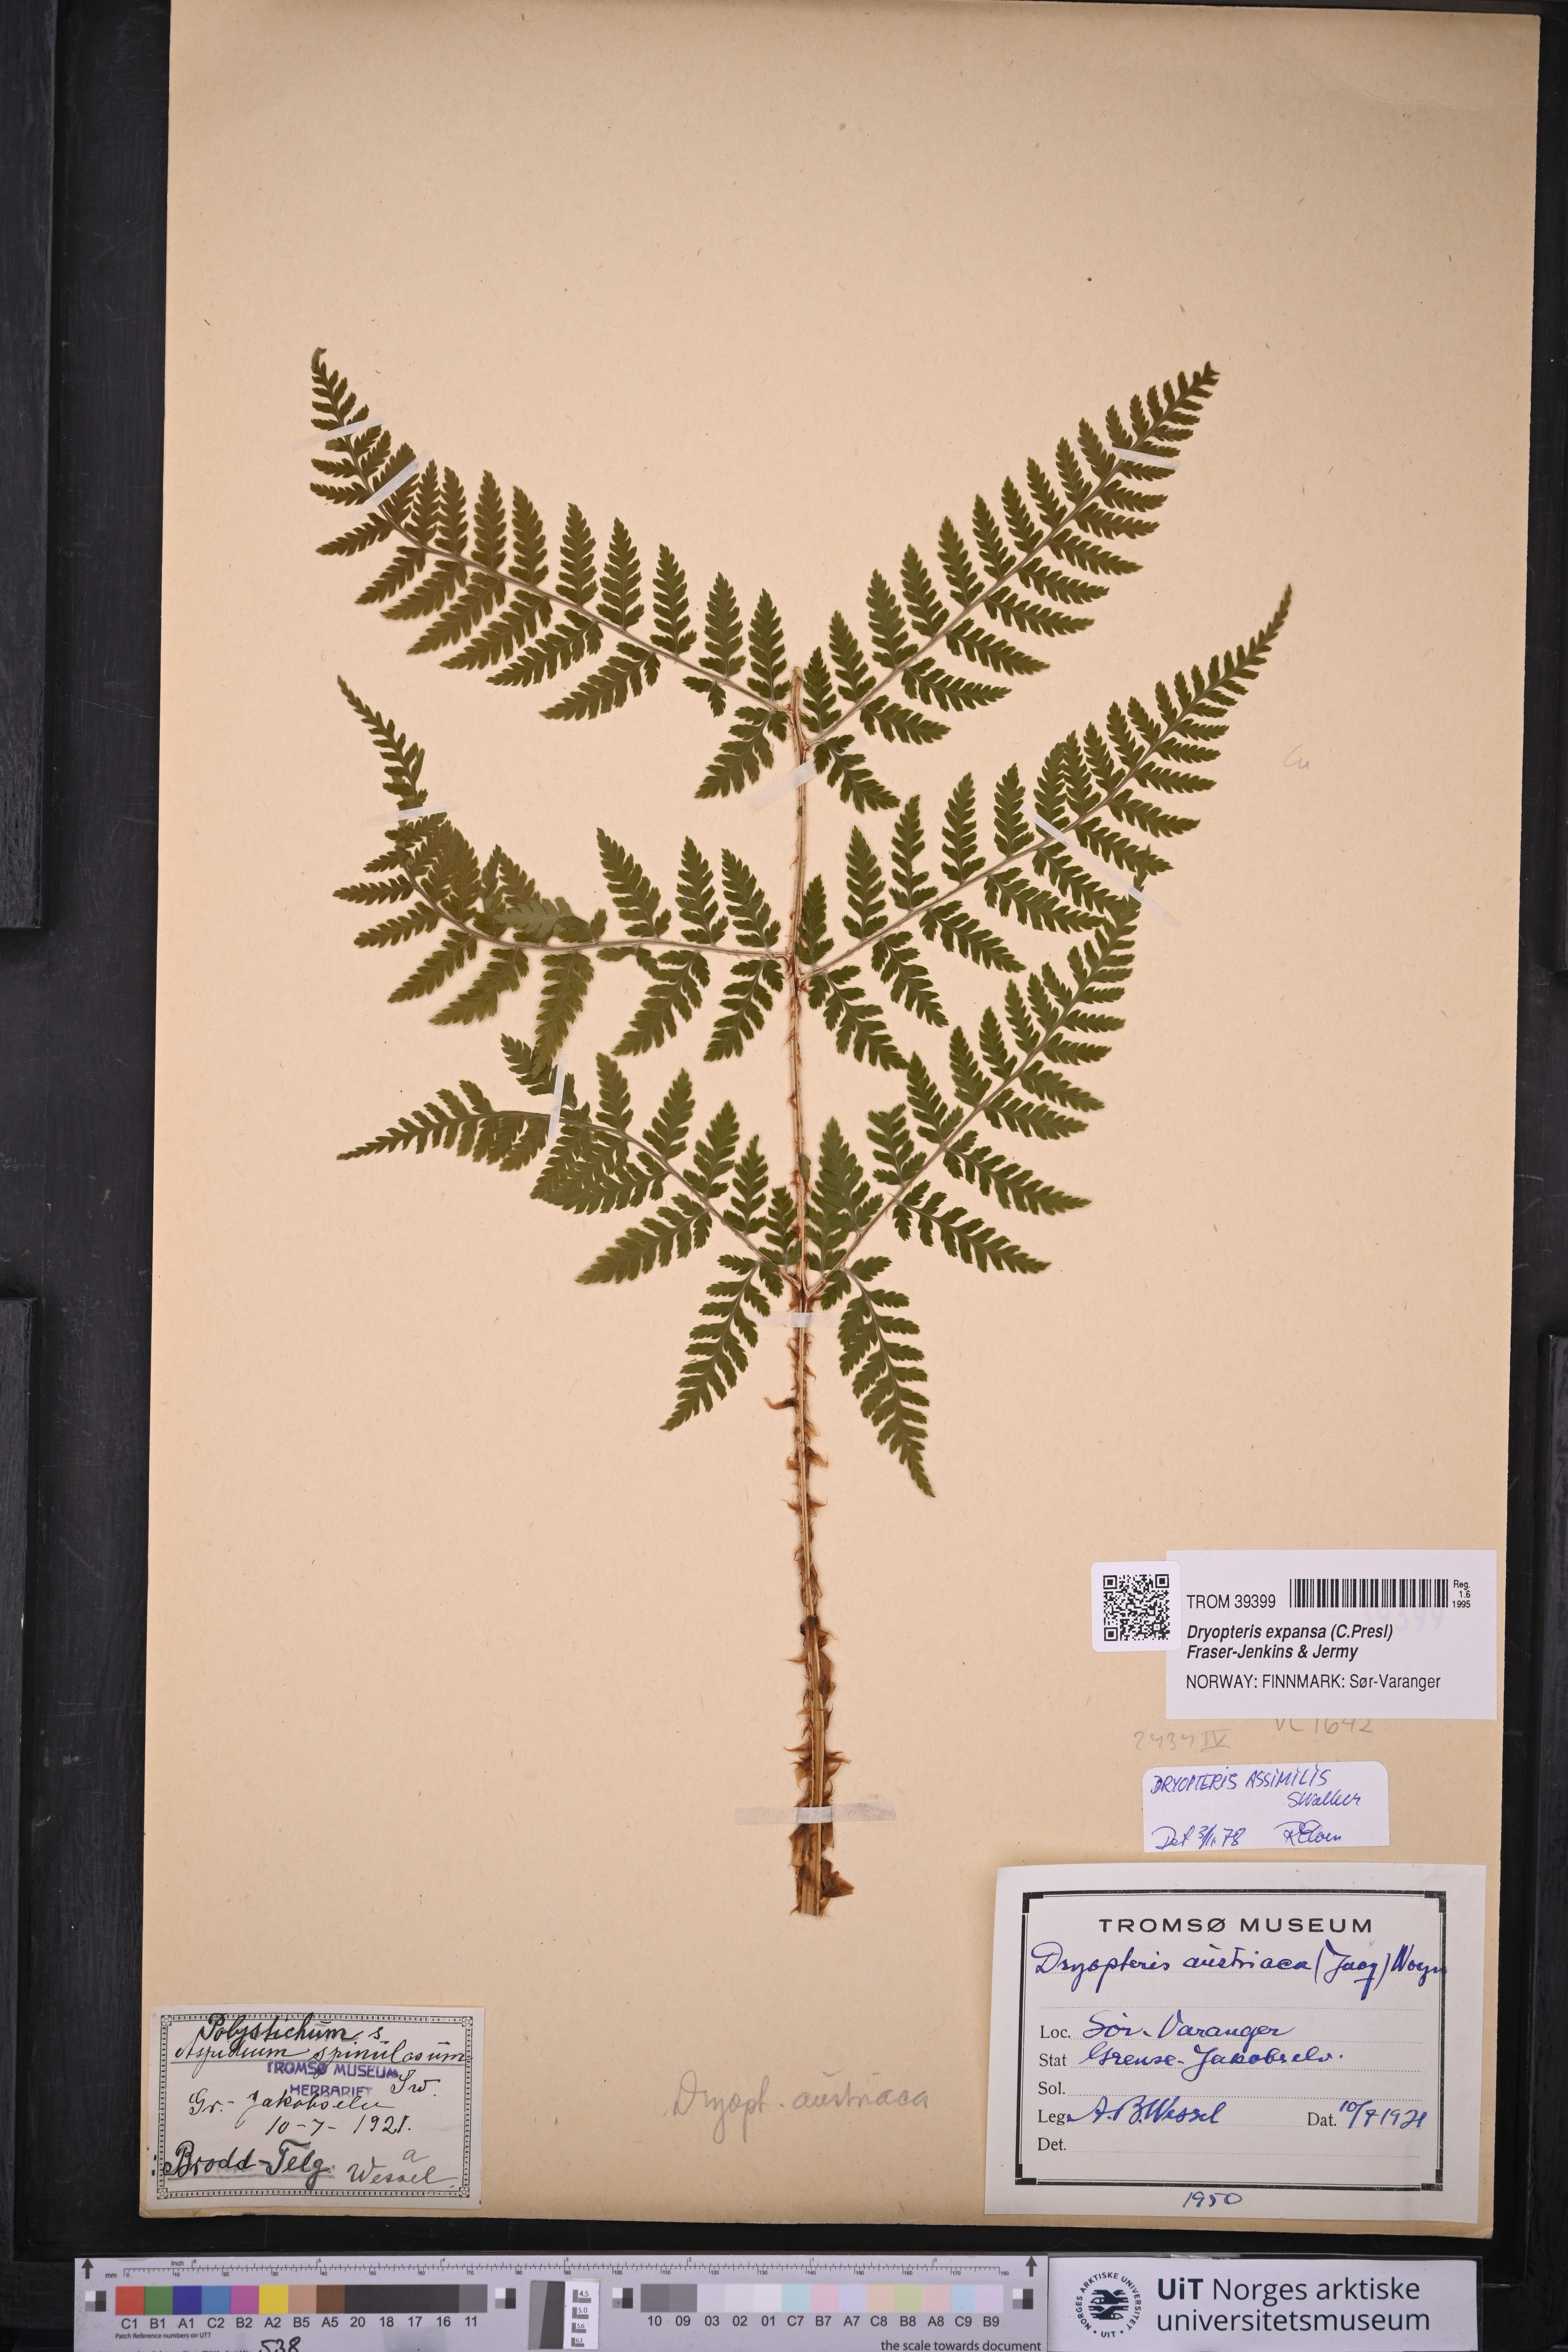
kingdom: Plantae
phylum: Tracheophyta
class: Polypodiopsida
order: Polypodiales
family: Dryopteridaceae
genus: Dryopteris
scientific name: Dryopteris expansa
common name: Northern buckler fern
